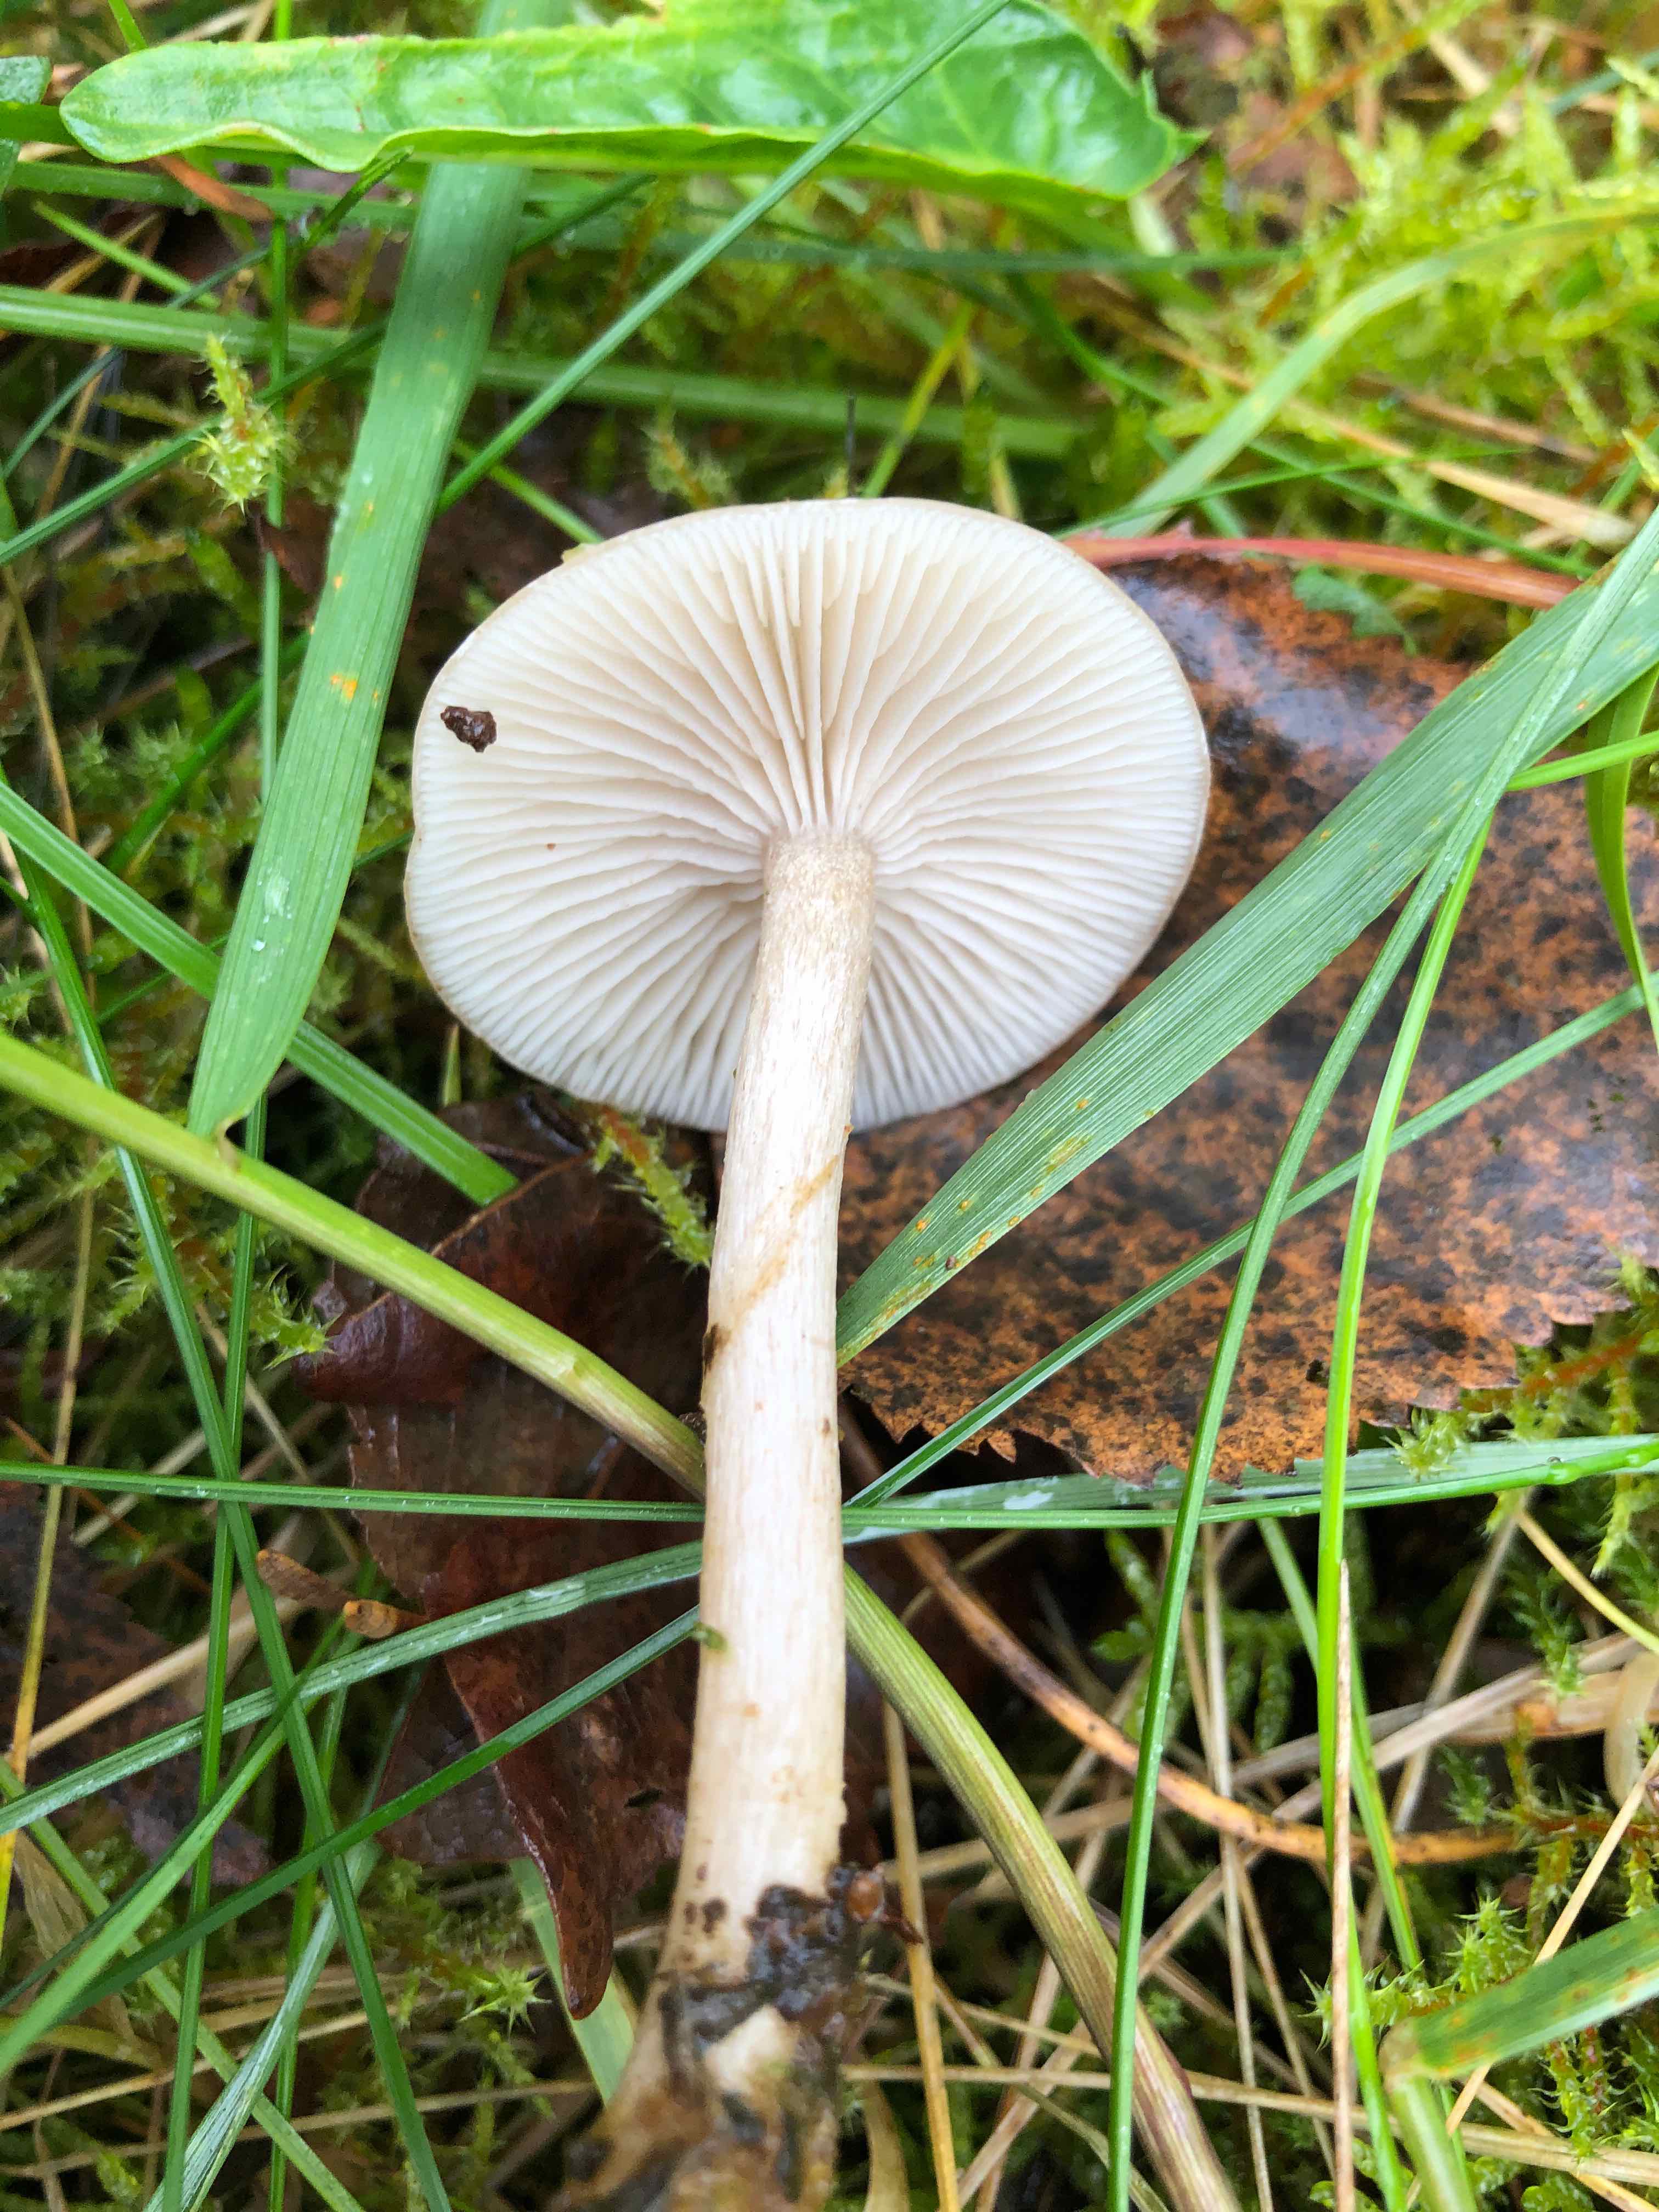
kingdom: Fungi
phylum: Basidiomycota
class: Agaricomycetes
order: Agaricales
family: Tricholomataceae
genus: Clitocybe
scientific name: Clitocybe fragrans
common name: vellugtende tragthat
